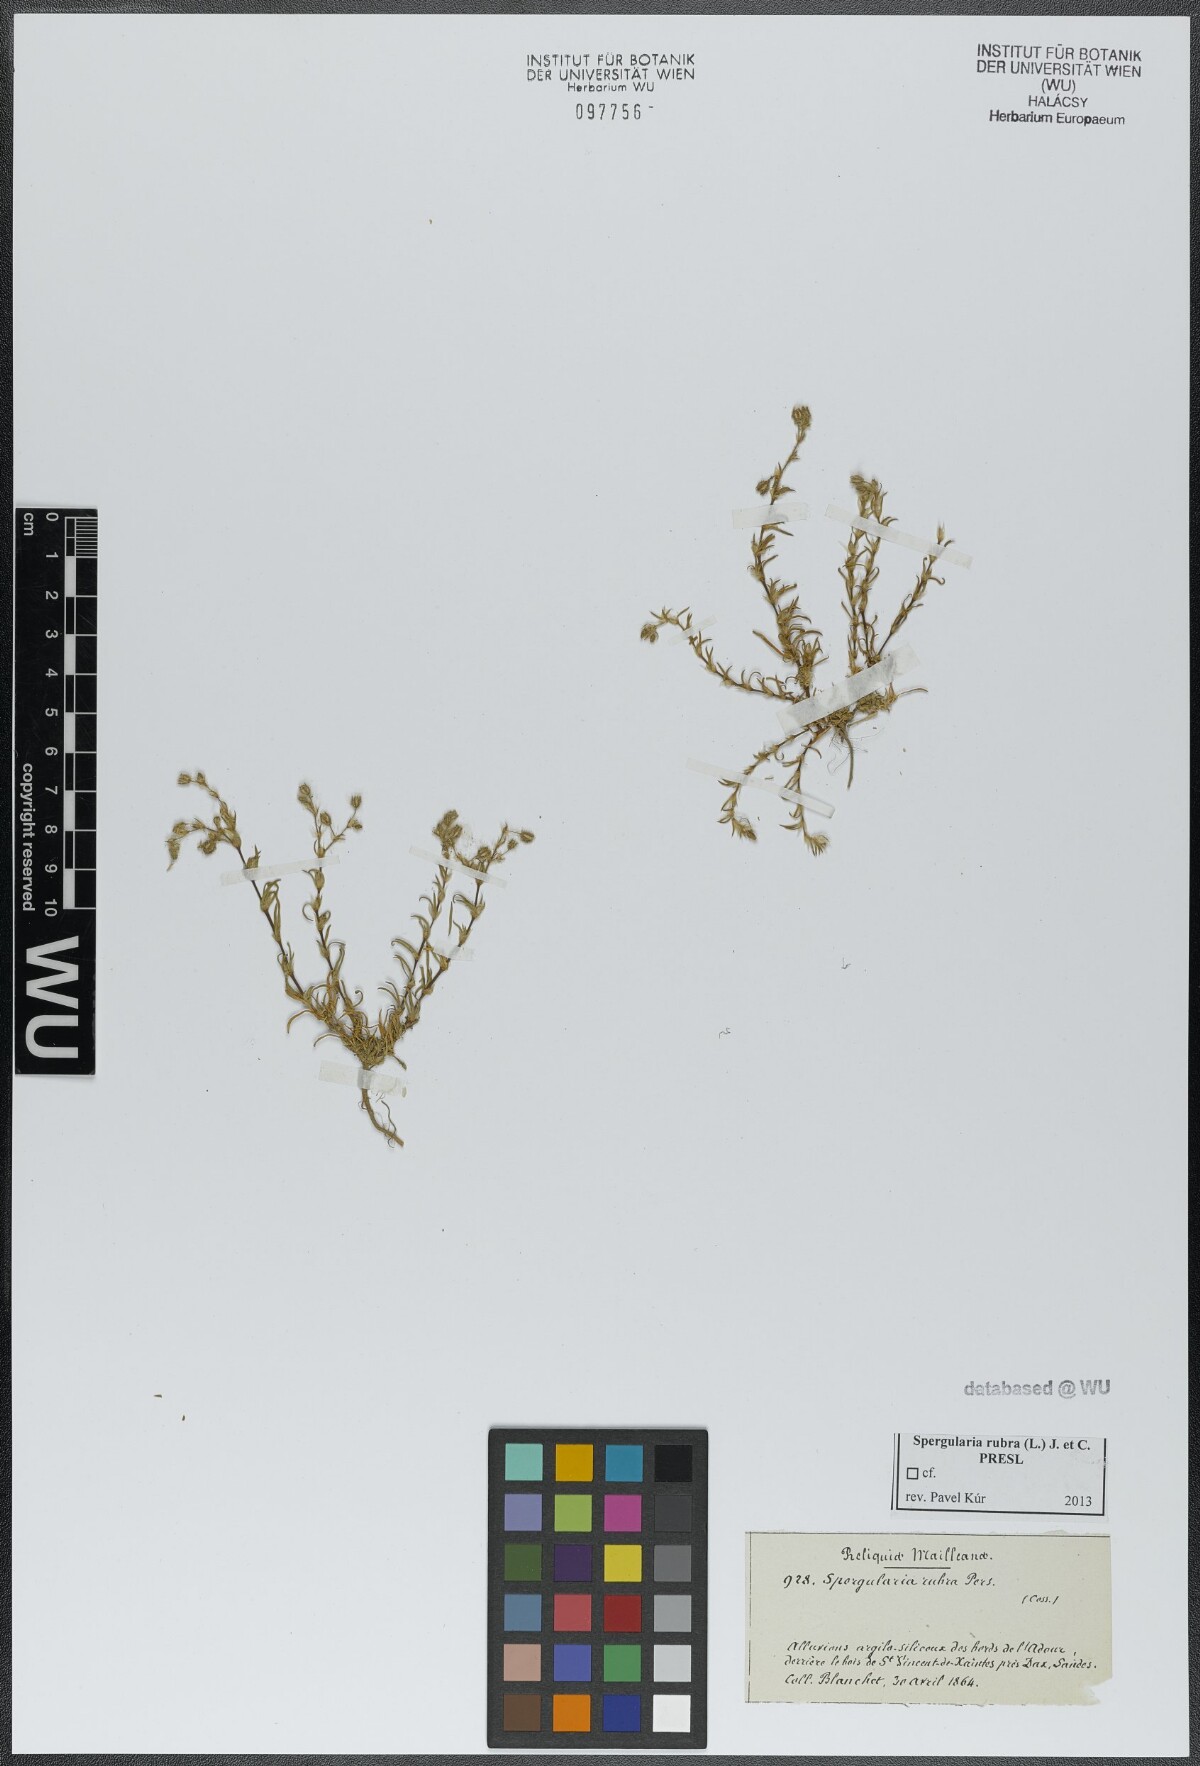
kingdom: Plantae
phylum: Tracheophyta
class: Magnoliopsida
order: Caryophyllales
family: Caryophyllaceae
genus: Spergularia
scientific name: Spergularia rubra
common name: Red sand-spurrey
